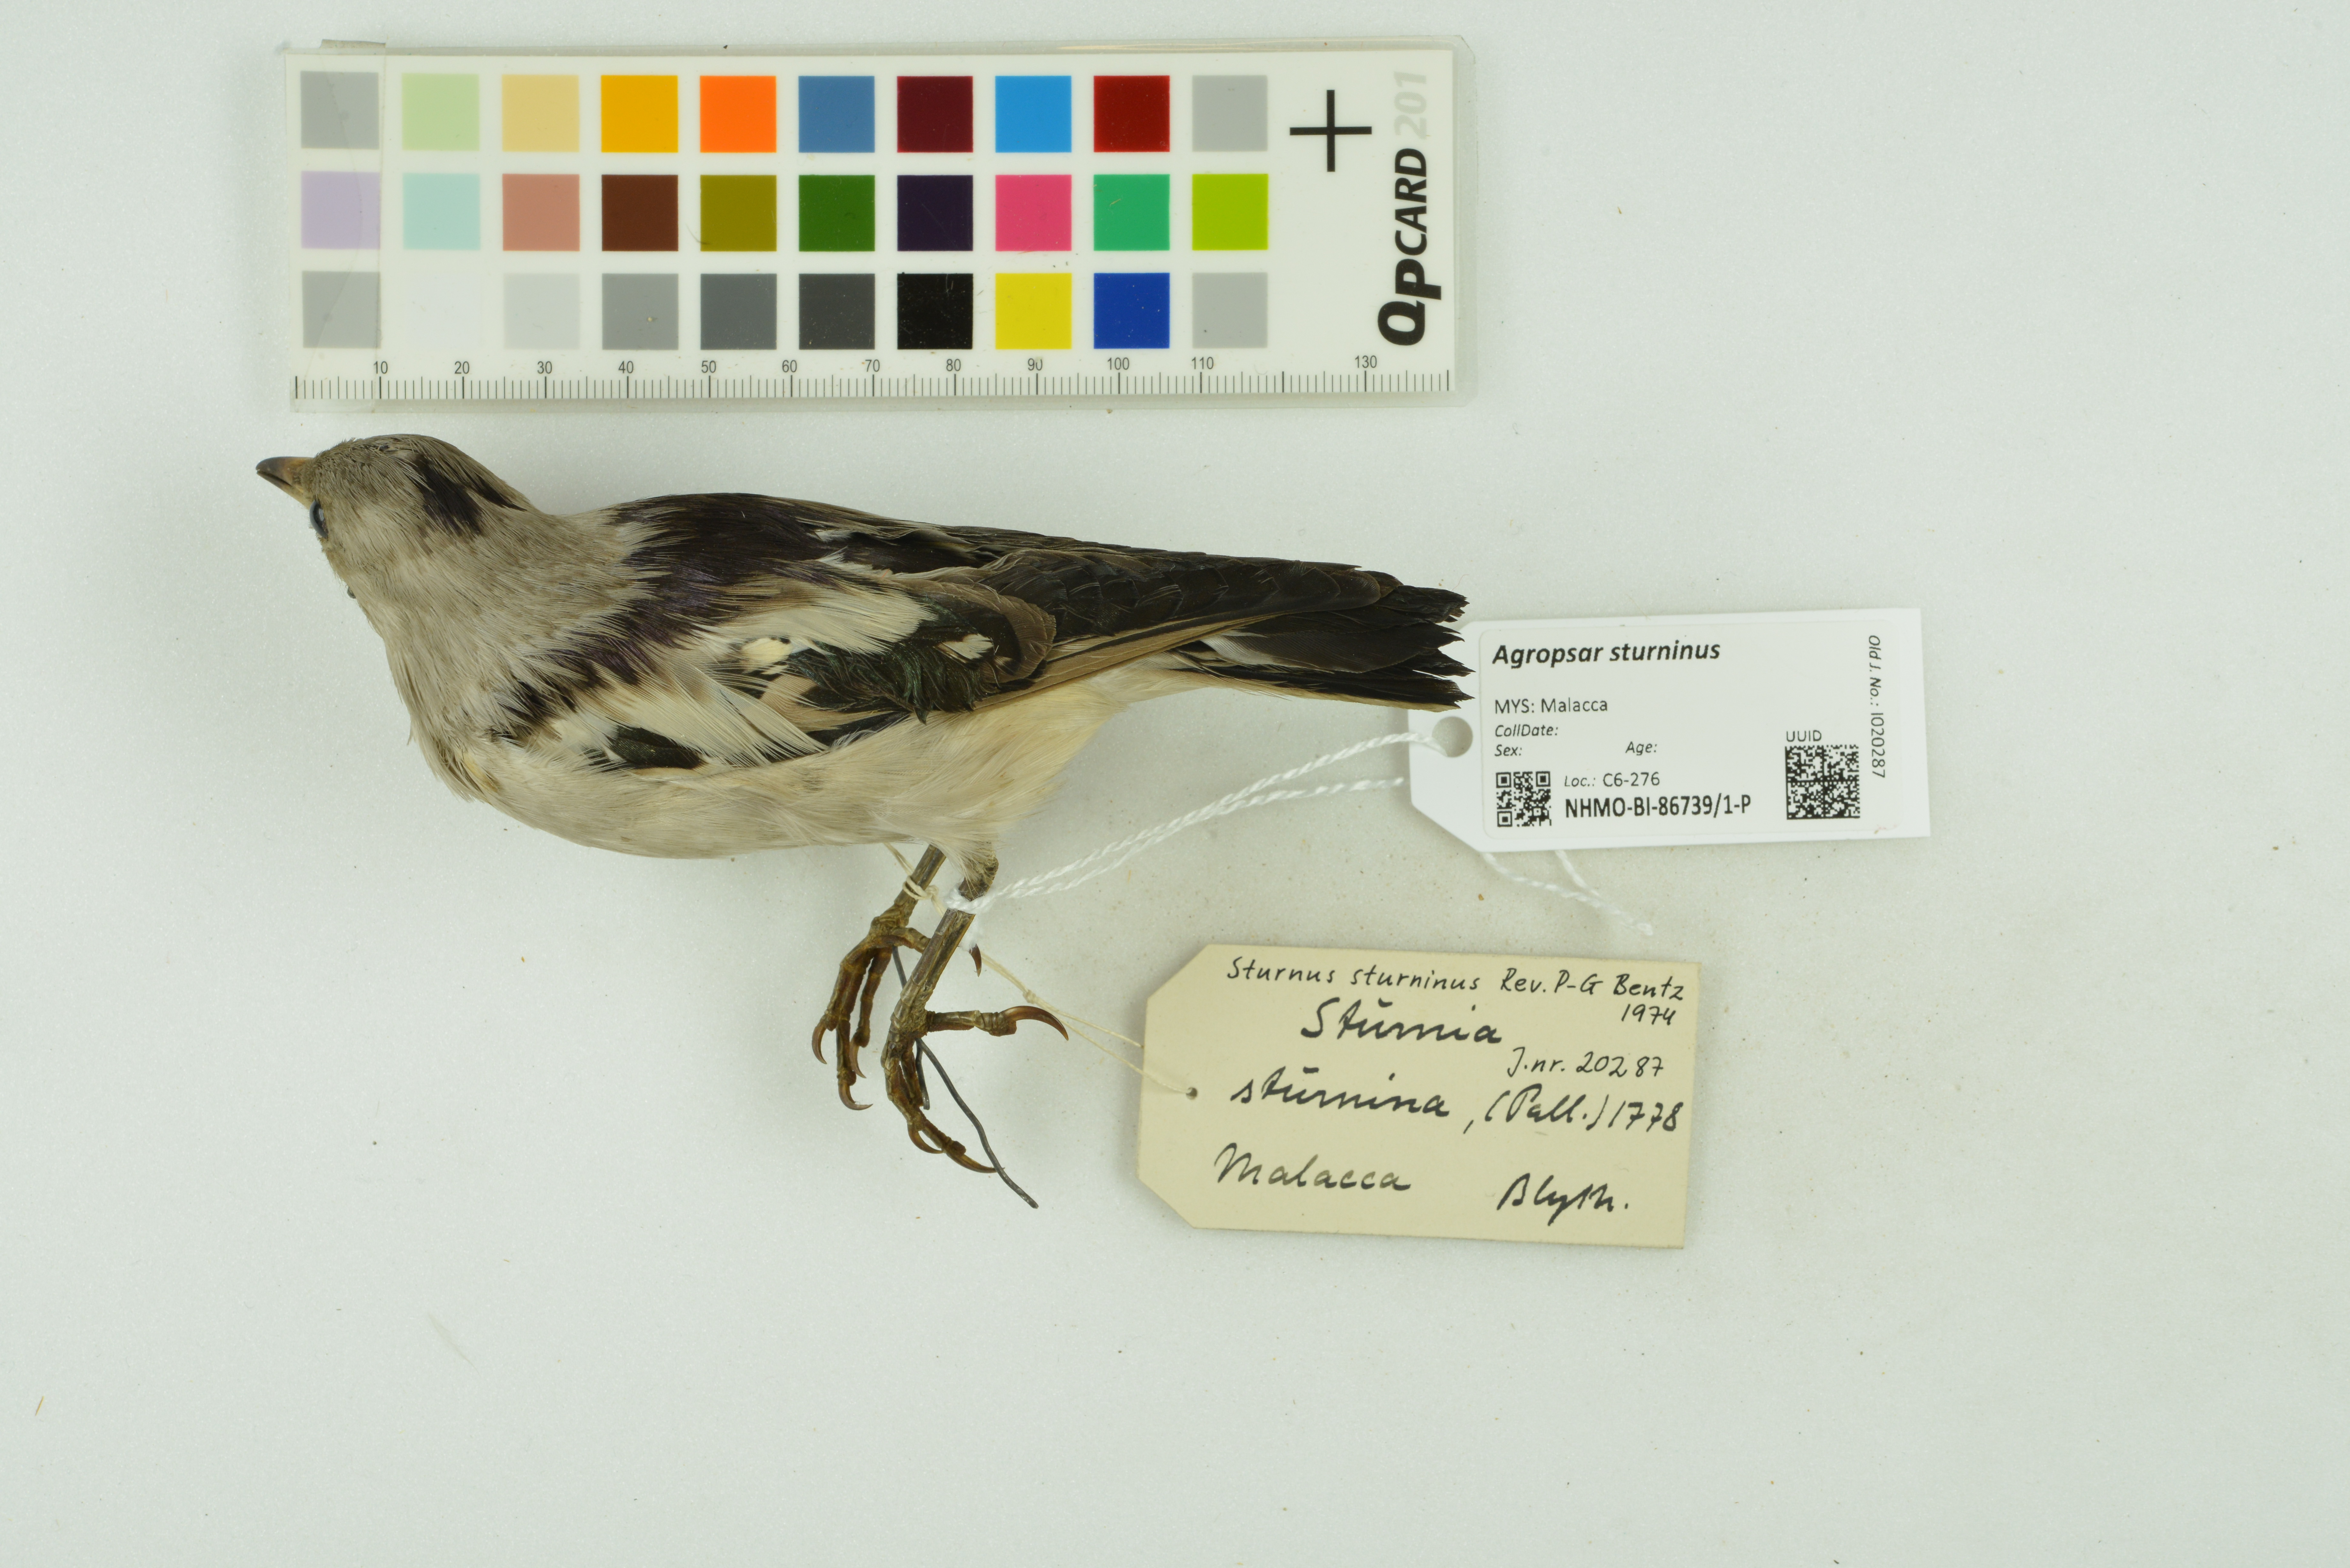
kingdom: Animalia
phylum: Chordata
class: Aves
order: Passeriformes
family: Sturnidae
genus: Agropsar
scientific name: Agropsar sturninus
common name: Daurian starling
